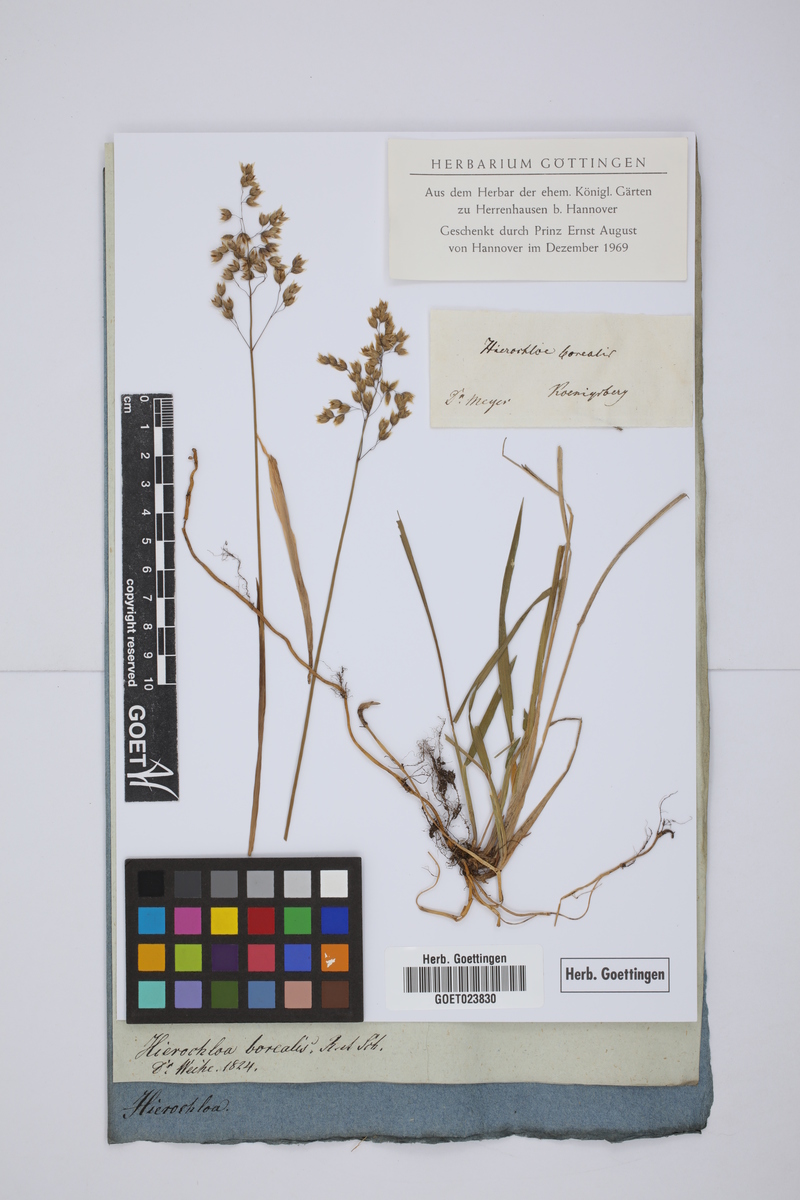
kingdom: Plantae
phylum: Tracheophyta
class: Liliopsida
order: Poales
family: Poaceae
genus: Anthoxanthum
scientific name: Anthoxanthum nitens
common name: Holy grass
